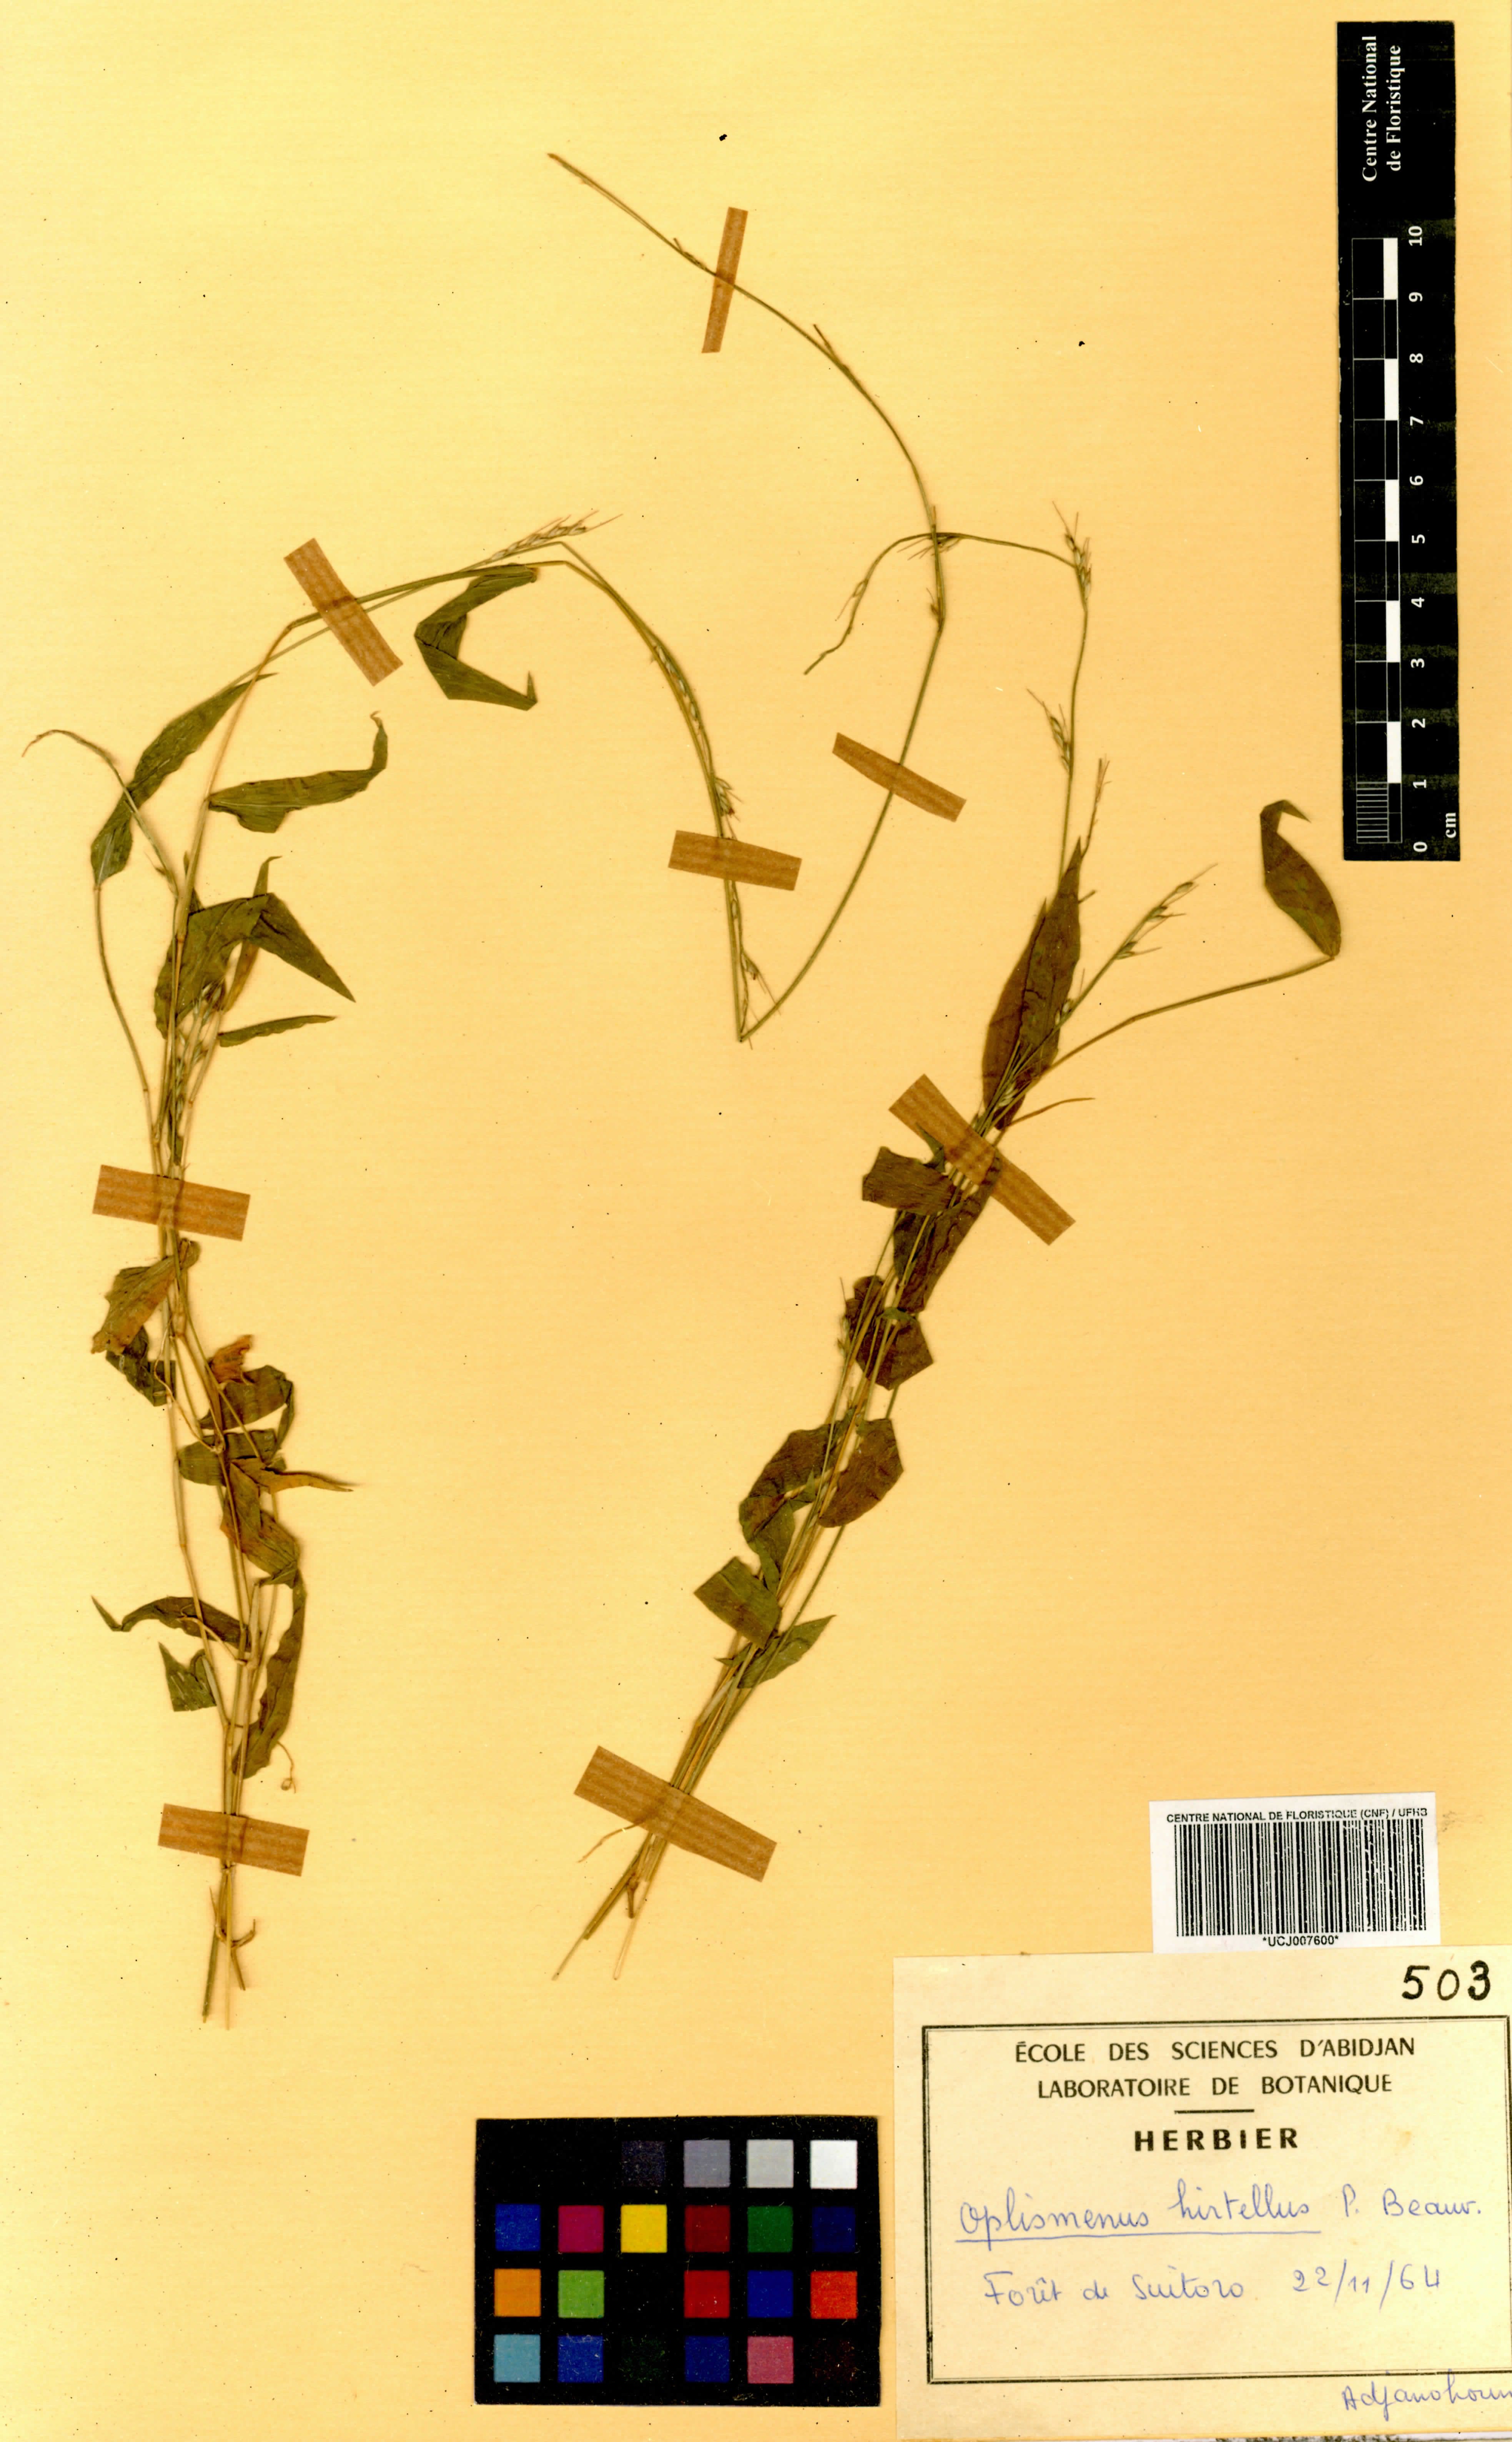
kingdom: Plantae
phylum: Tracheophyta
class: Liliopsida
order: Poales
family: Poaceae
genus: Oplismenus
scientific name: Oplismenus hirtellus
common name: Basketgrass
